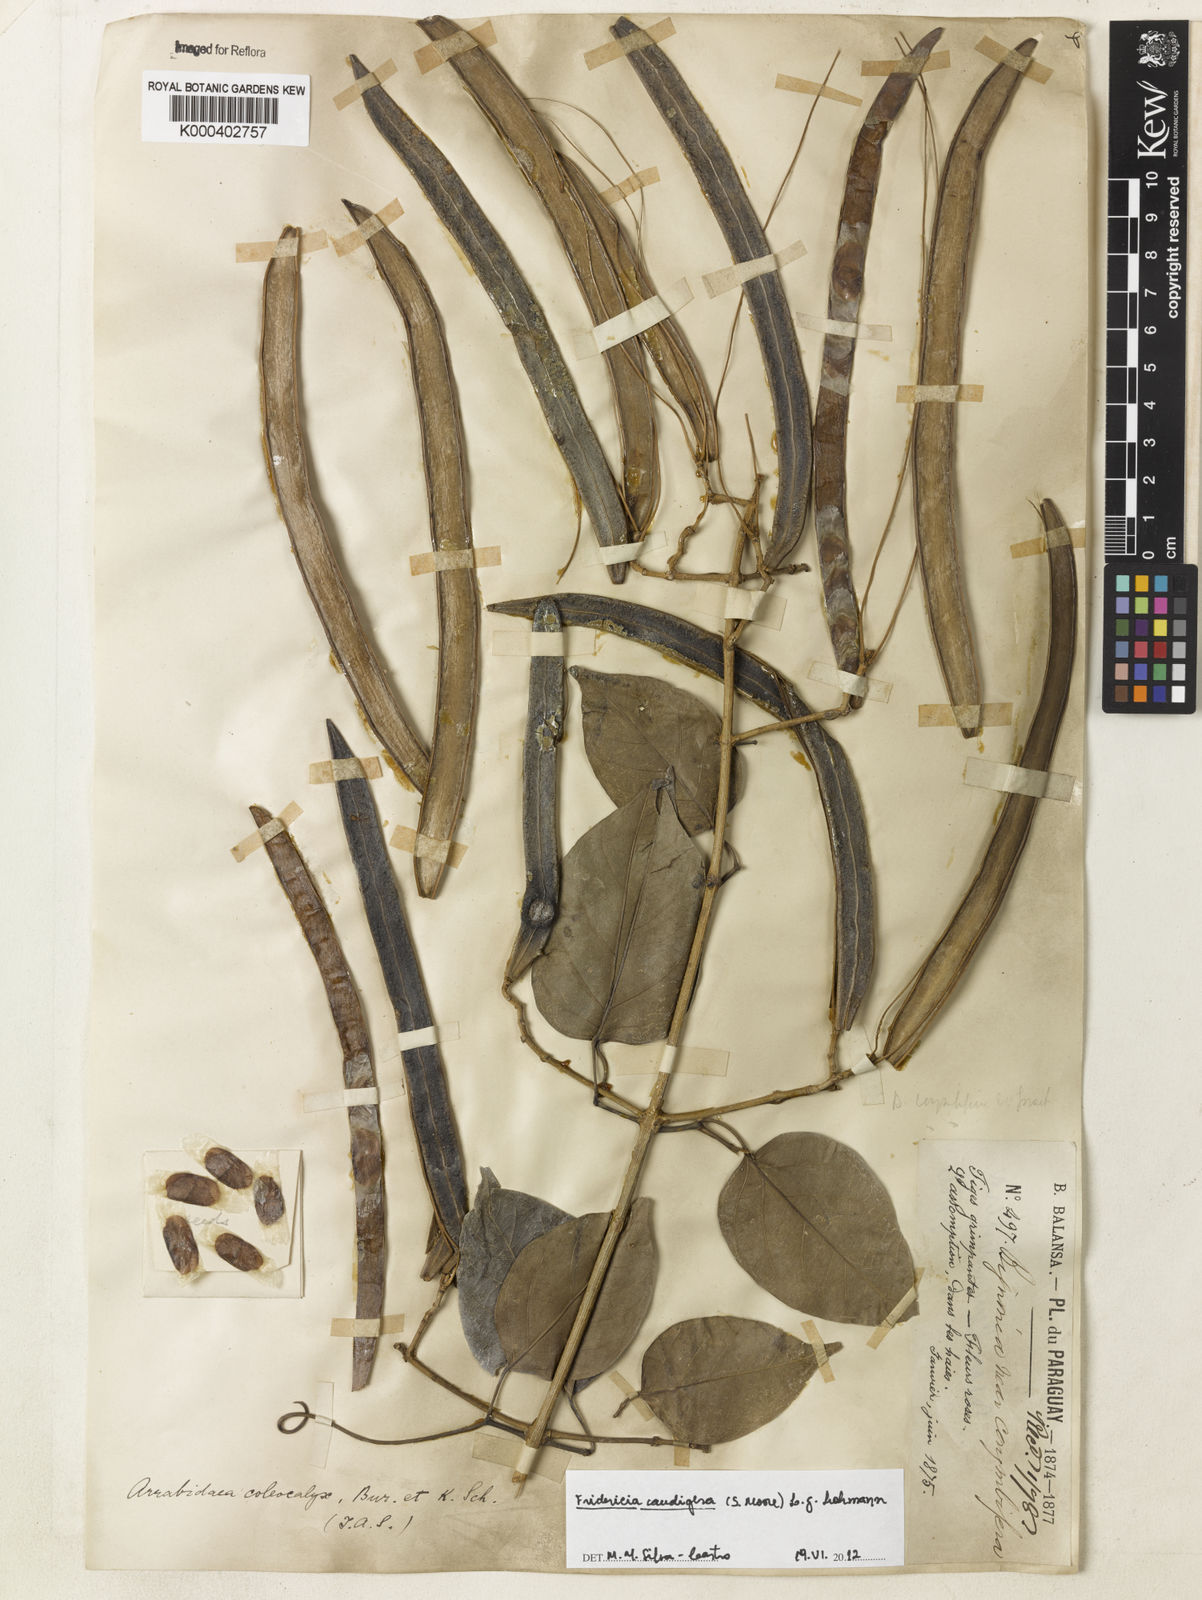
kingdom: Plantae
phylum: Tracheophyta
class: Magnoliopsida
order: Lamiales
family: Bignoniaceae
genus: Fridericia
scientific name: Fridericia caudigera
